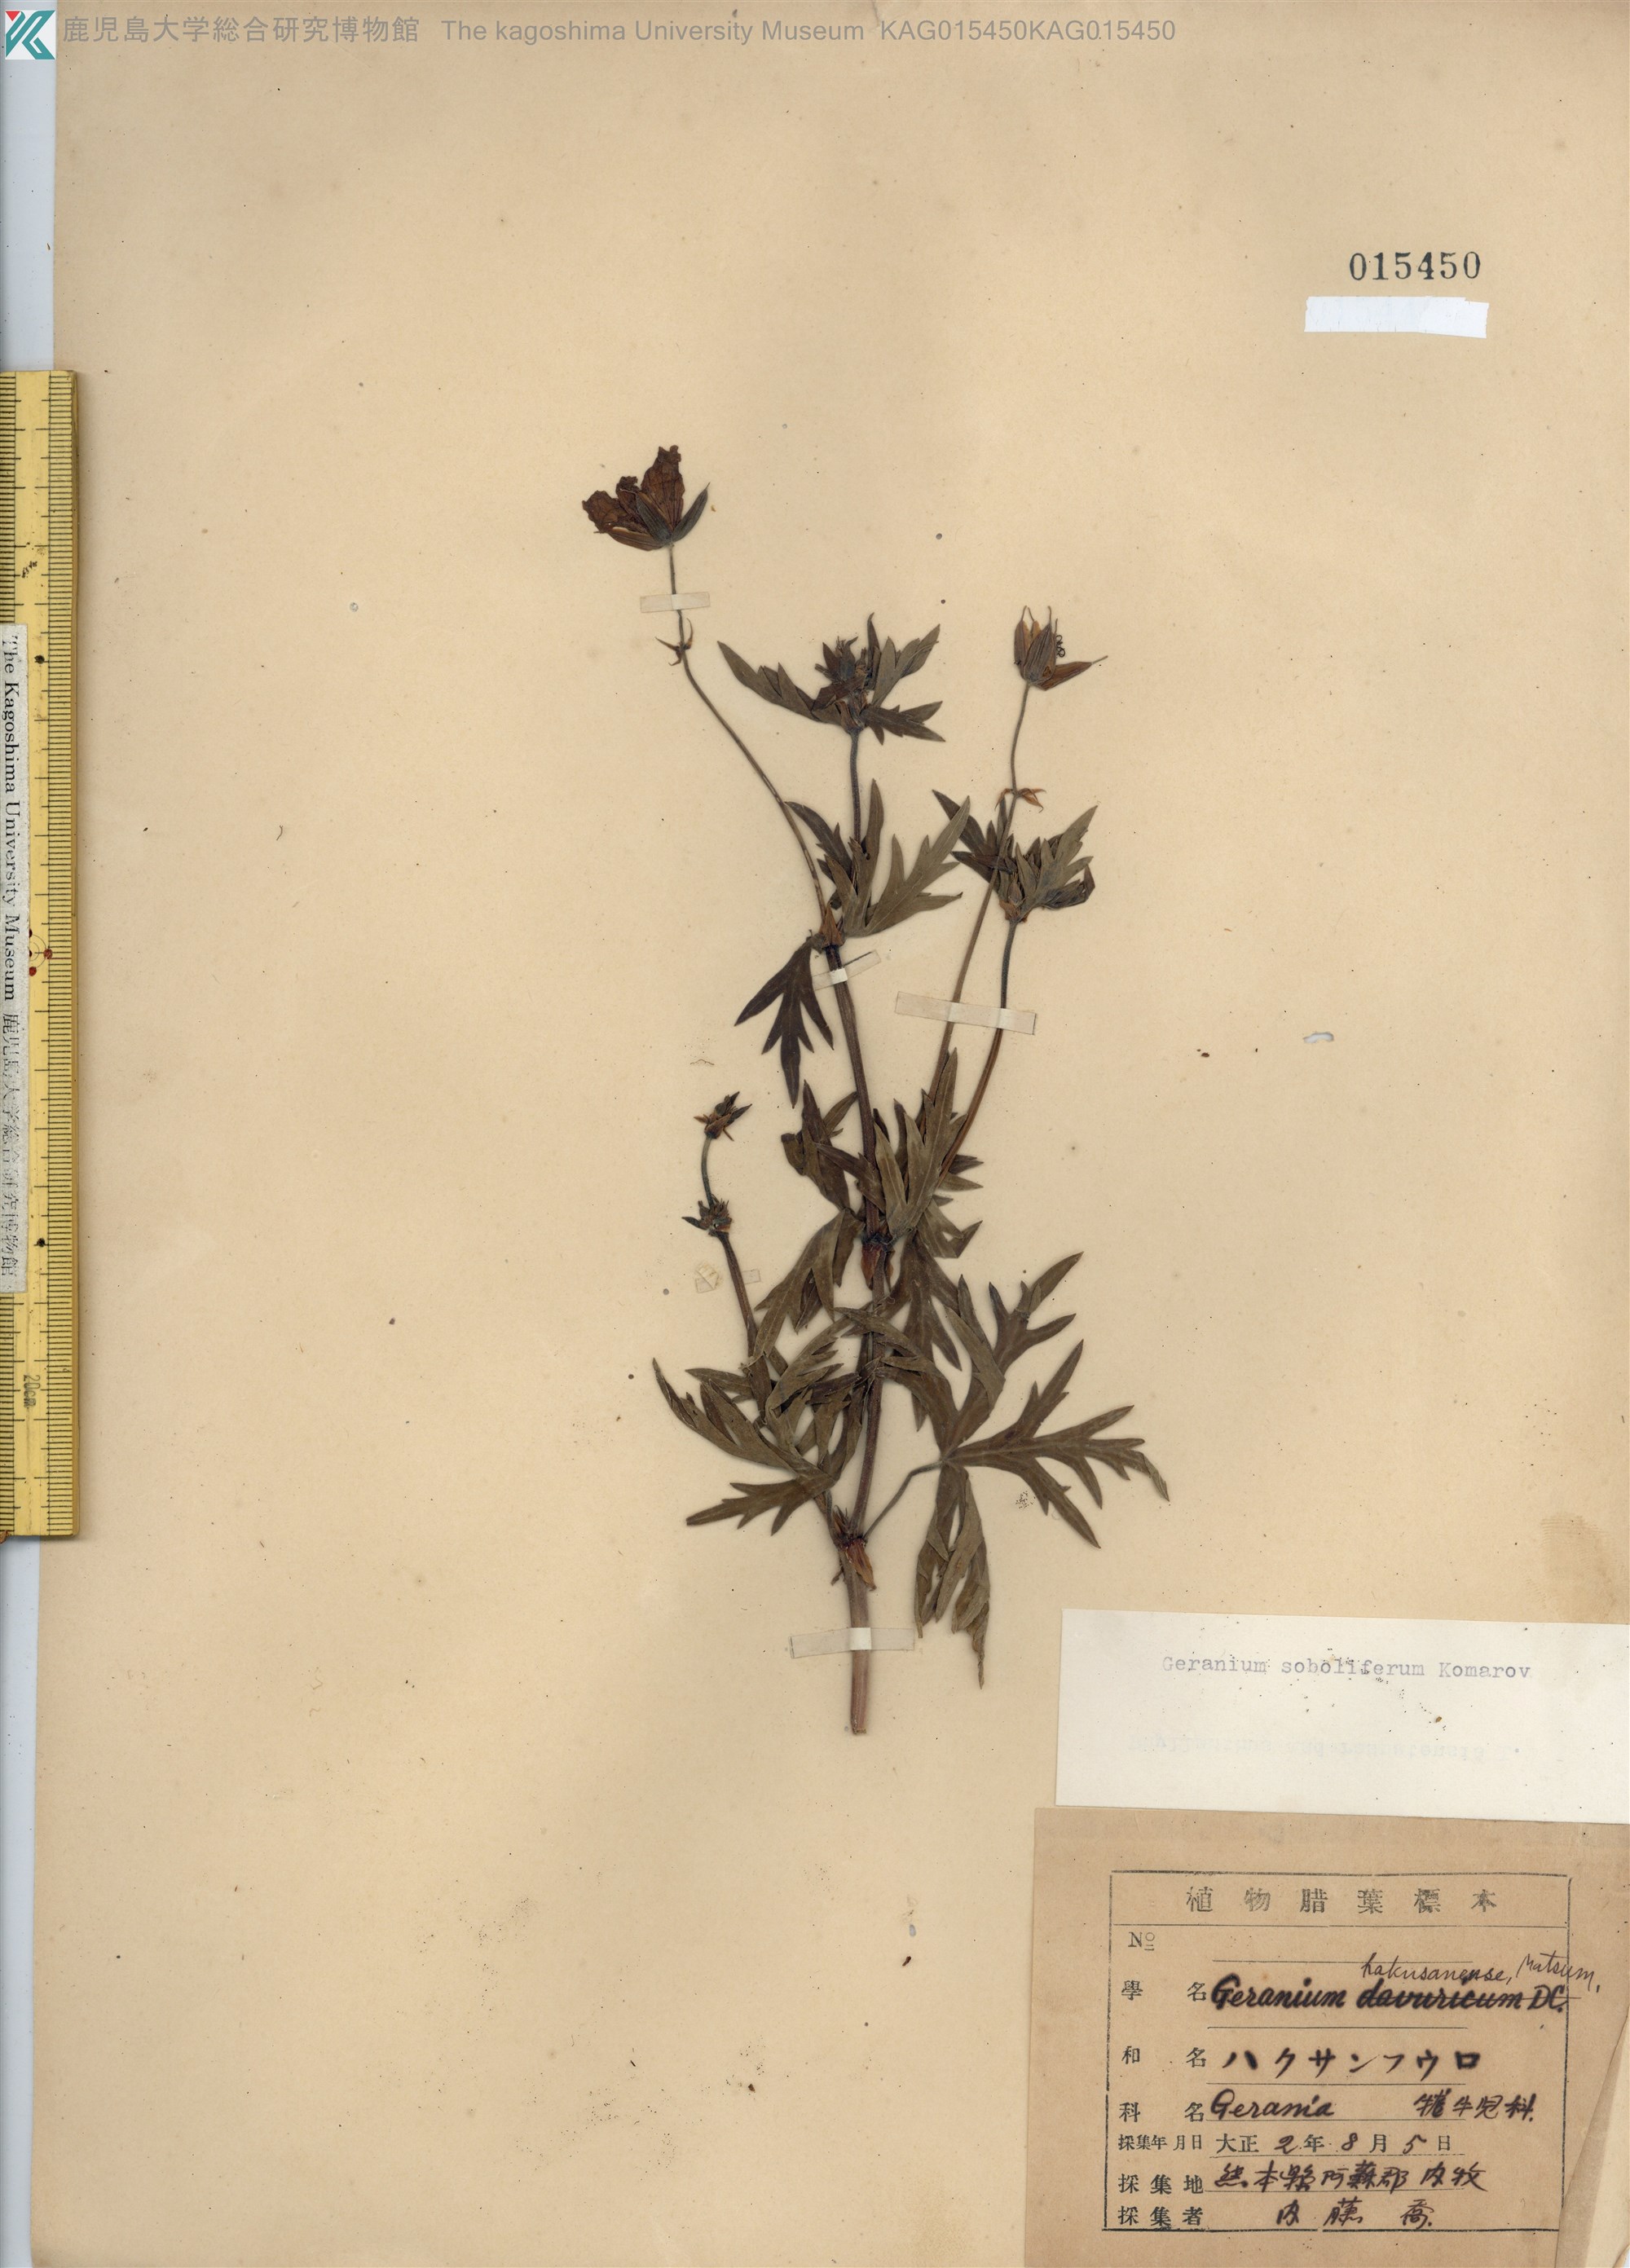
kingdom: Plantae
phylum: Tracheophyta
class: Magnoliopsida
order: Geraniales
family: Geraniaceae
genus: Geranium
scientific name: Geranium soboliferum
